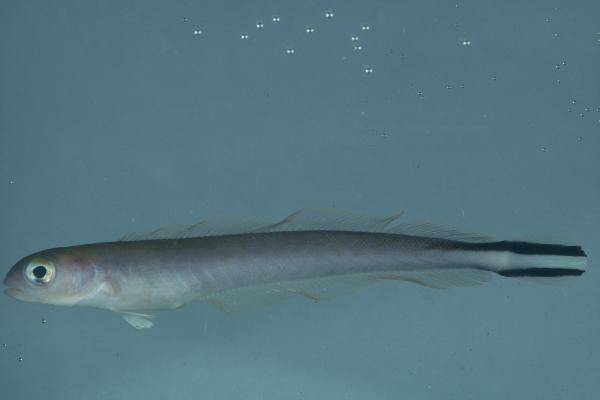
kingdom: Animalia
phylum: Chordata
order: Perciformes
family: Malacanthidae
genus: Malacanthus
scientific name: Malacanthus brevirostris
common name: Flagtail blanquillo
